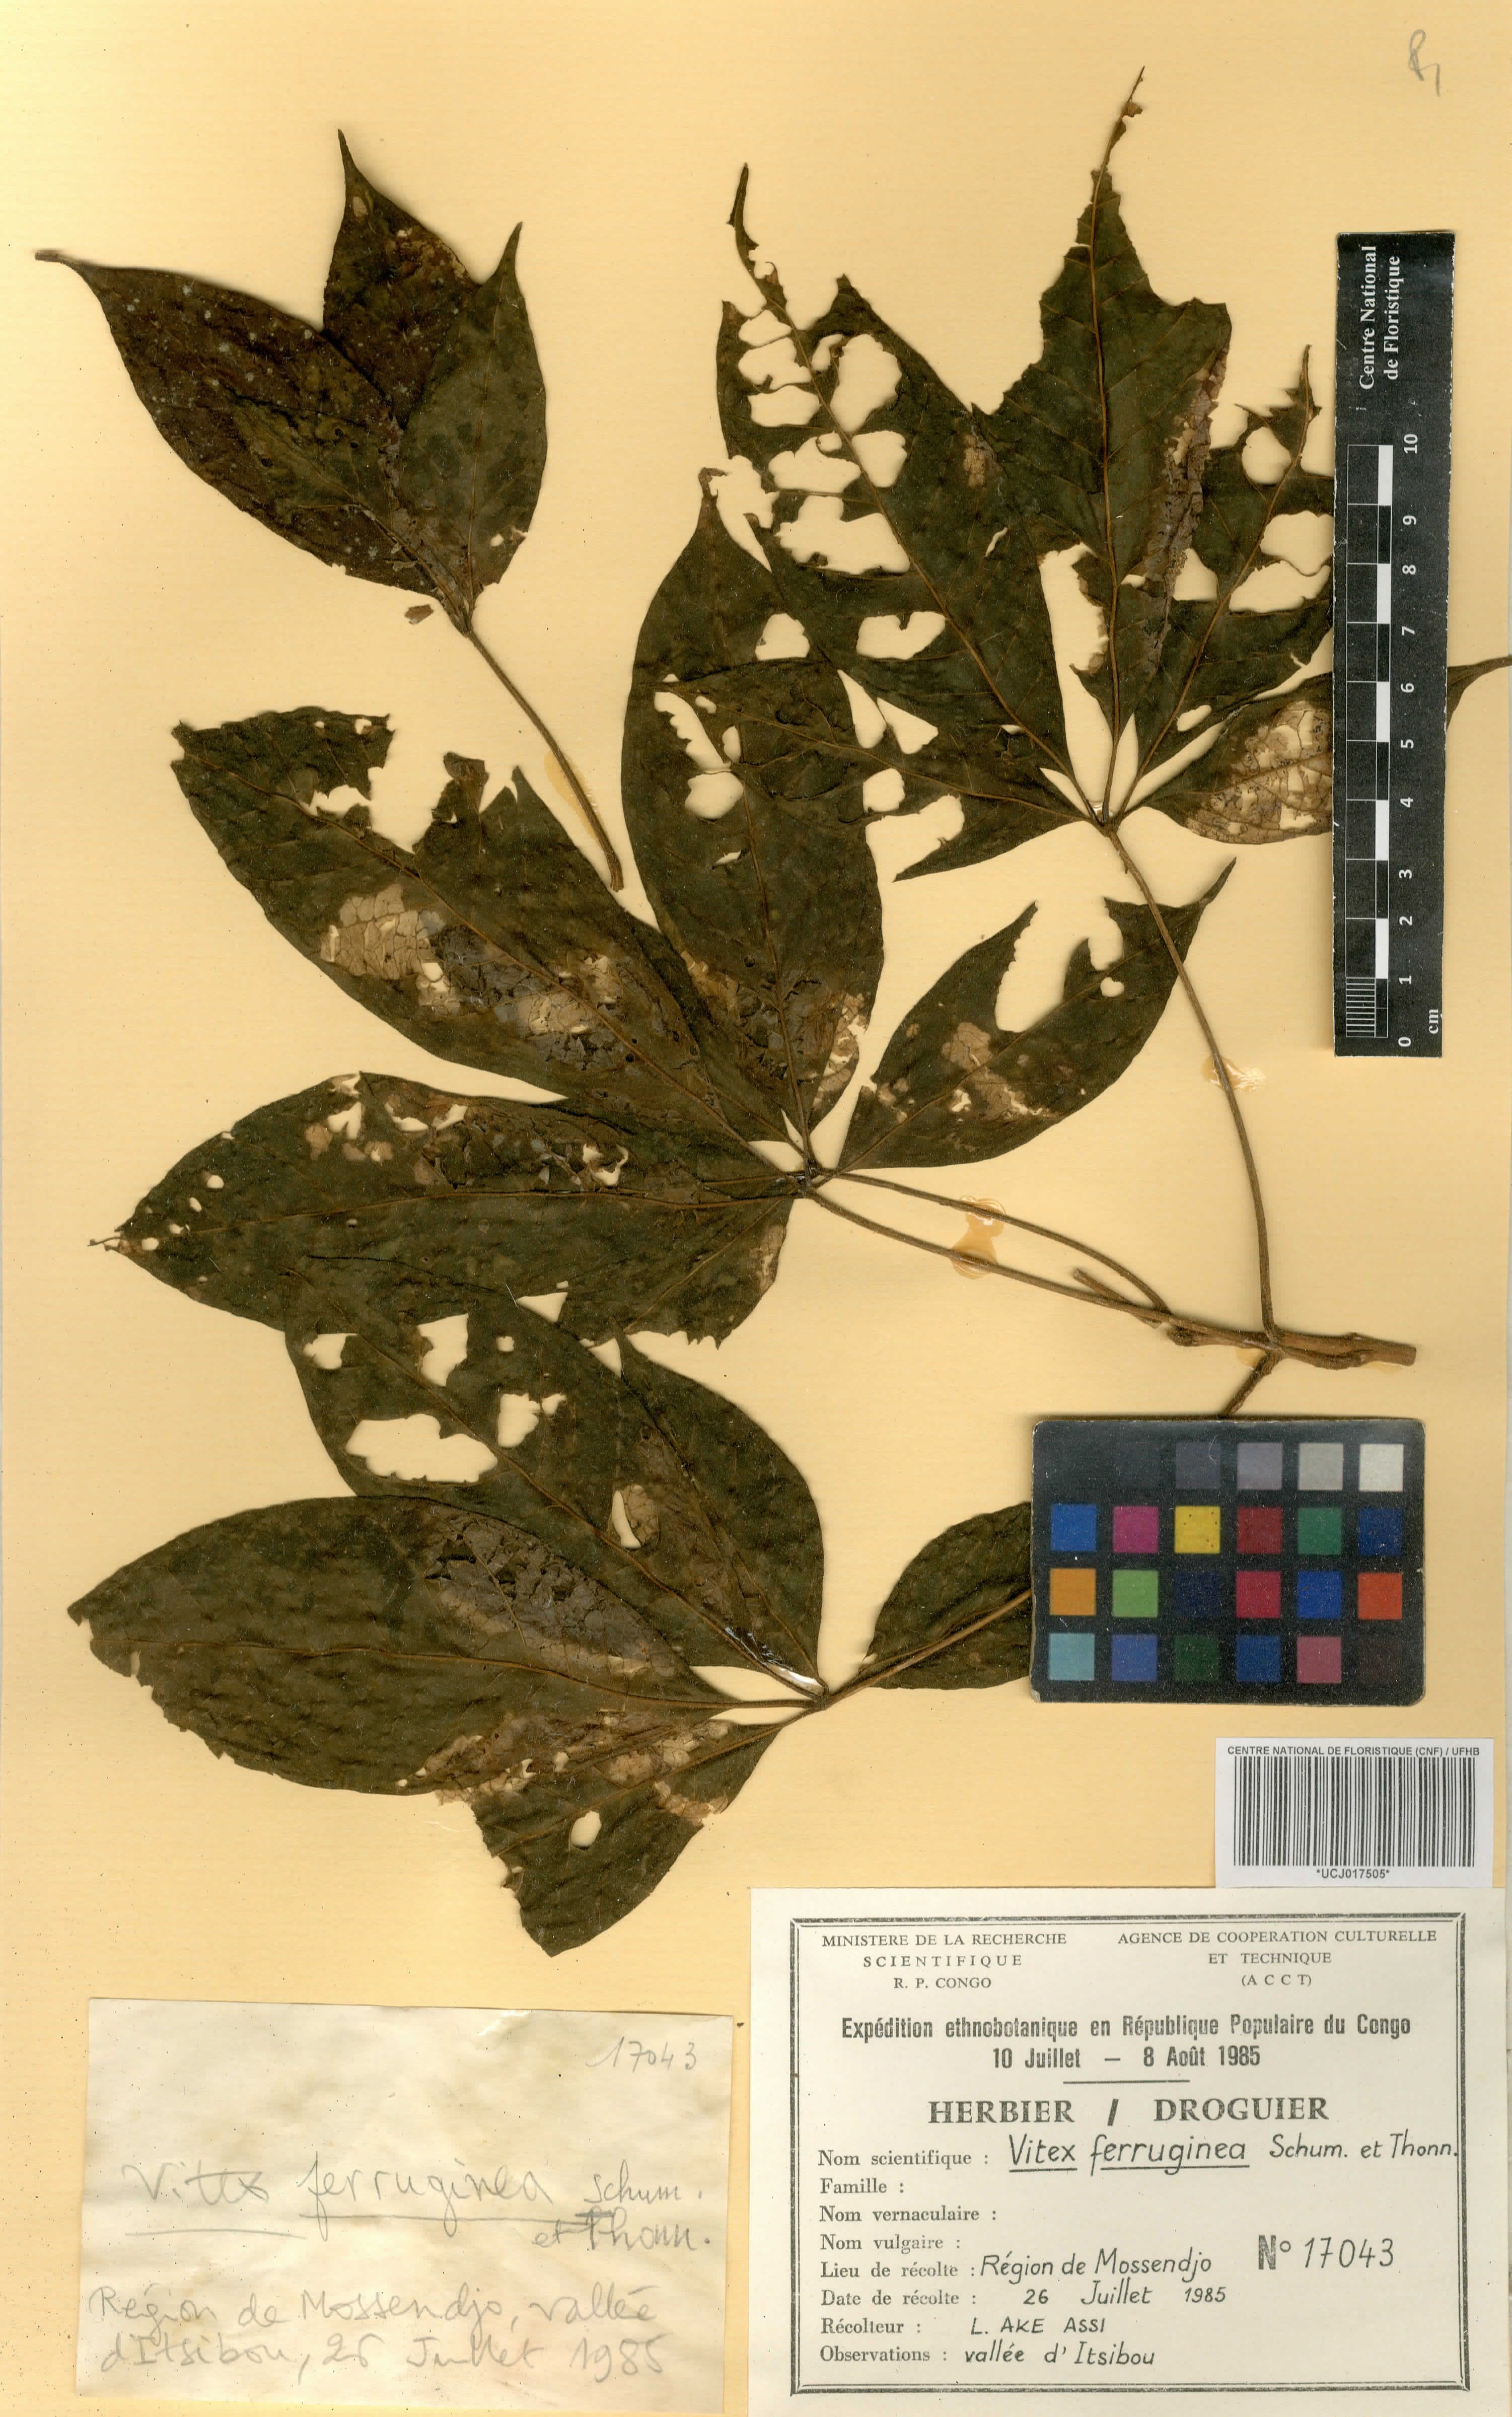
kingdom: Plantae
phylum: Tracheophyta
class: Magnoliopsida
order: Lamiales
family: Lamiaceae
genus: Vitex
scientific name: Vitex ferruginea
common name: Plum fingerleaf
